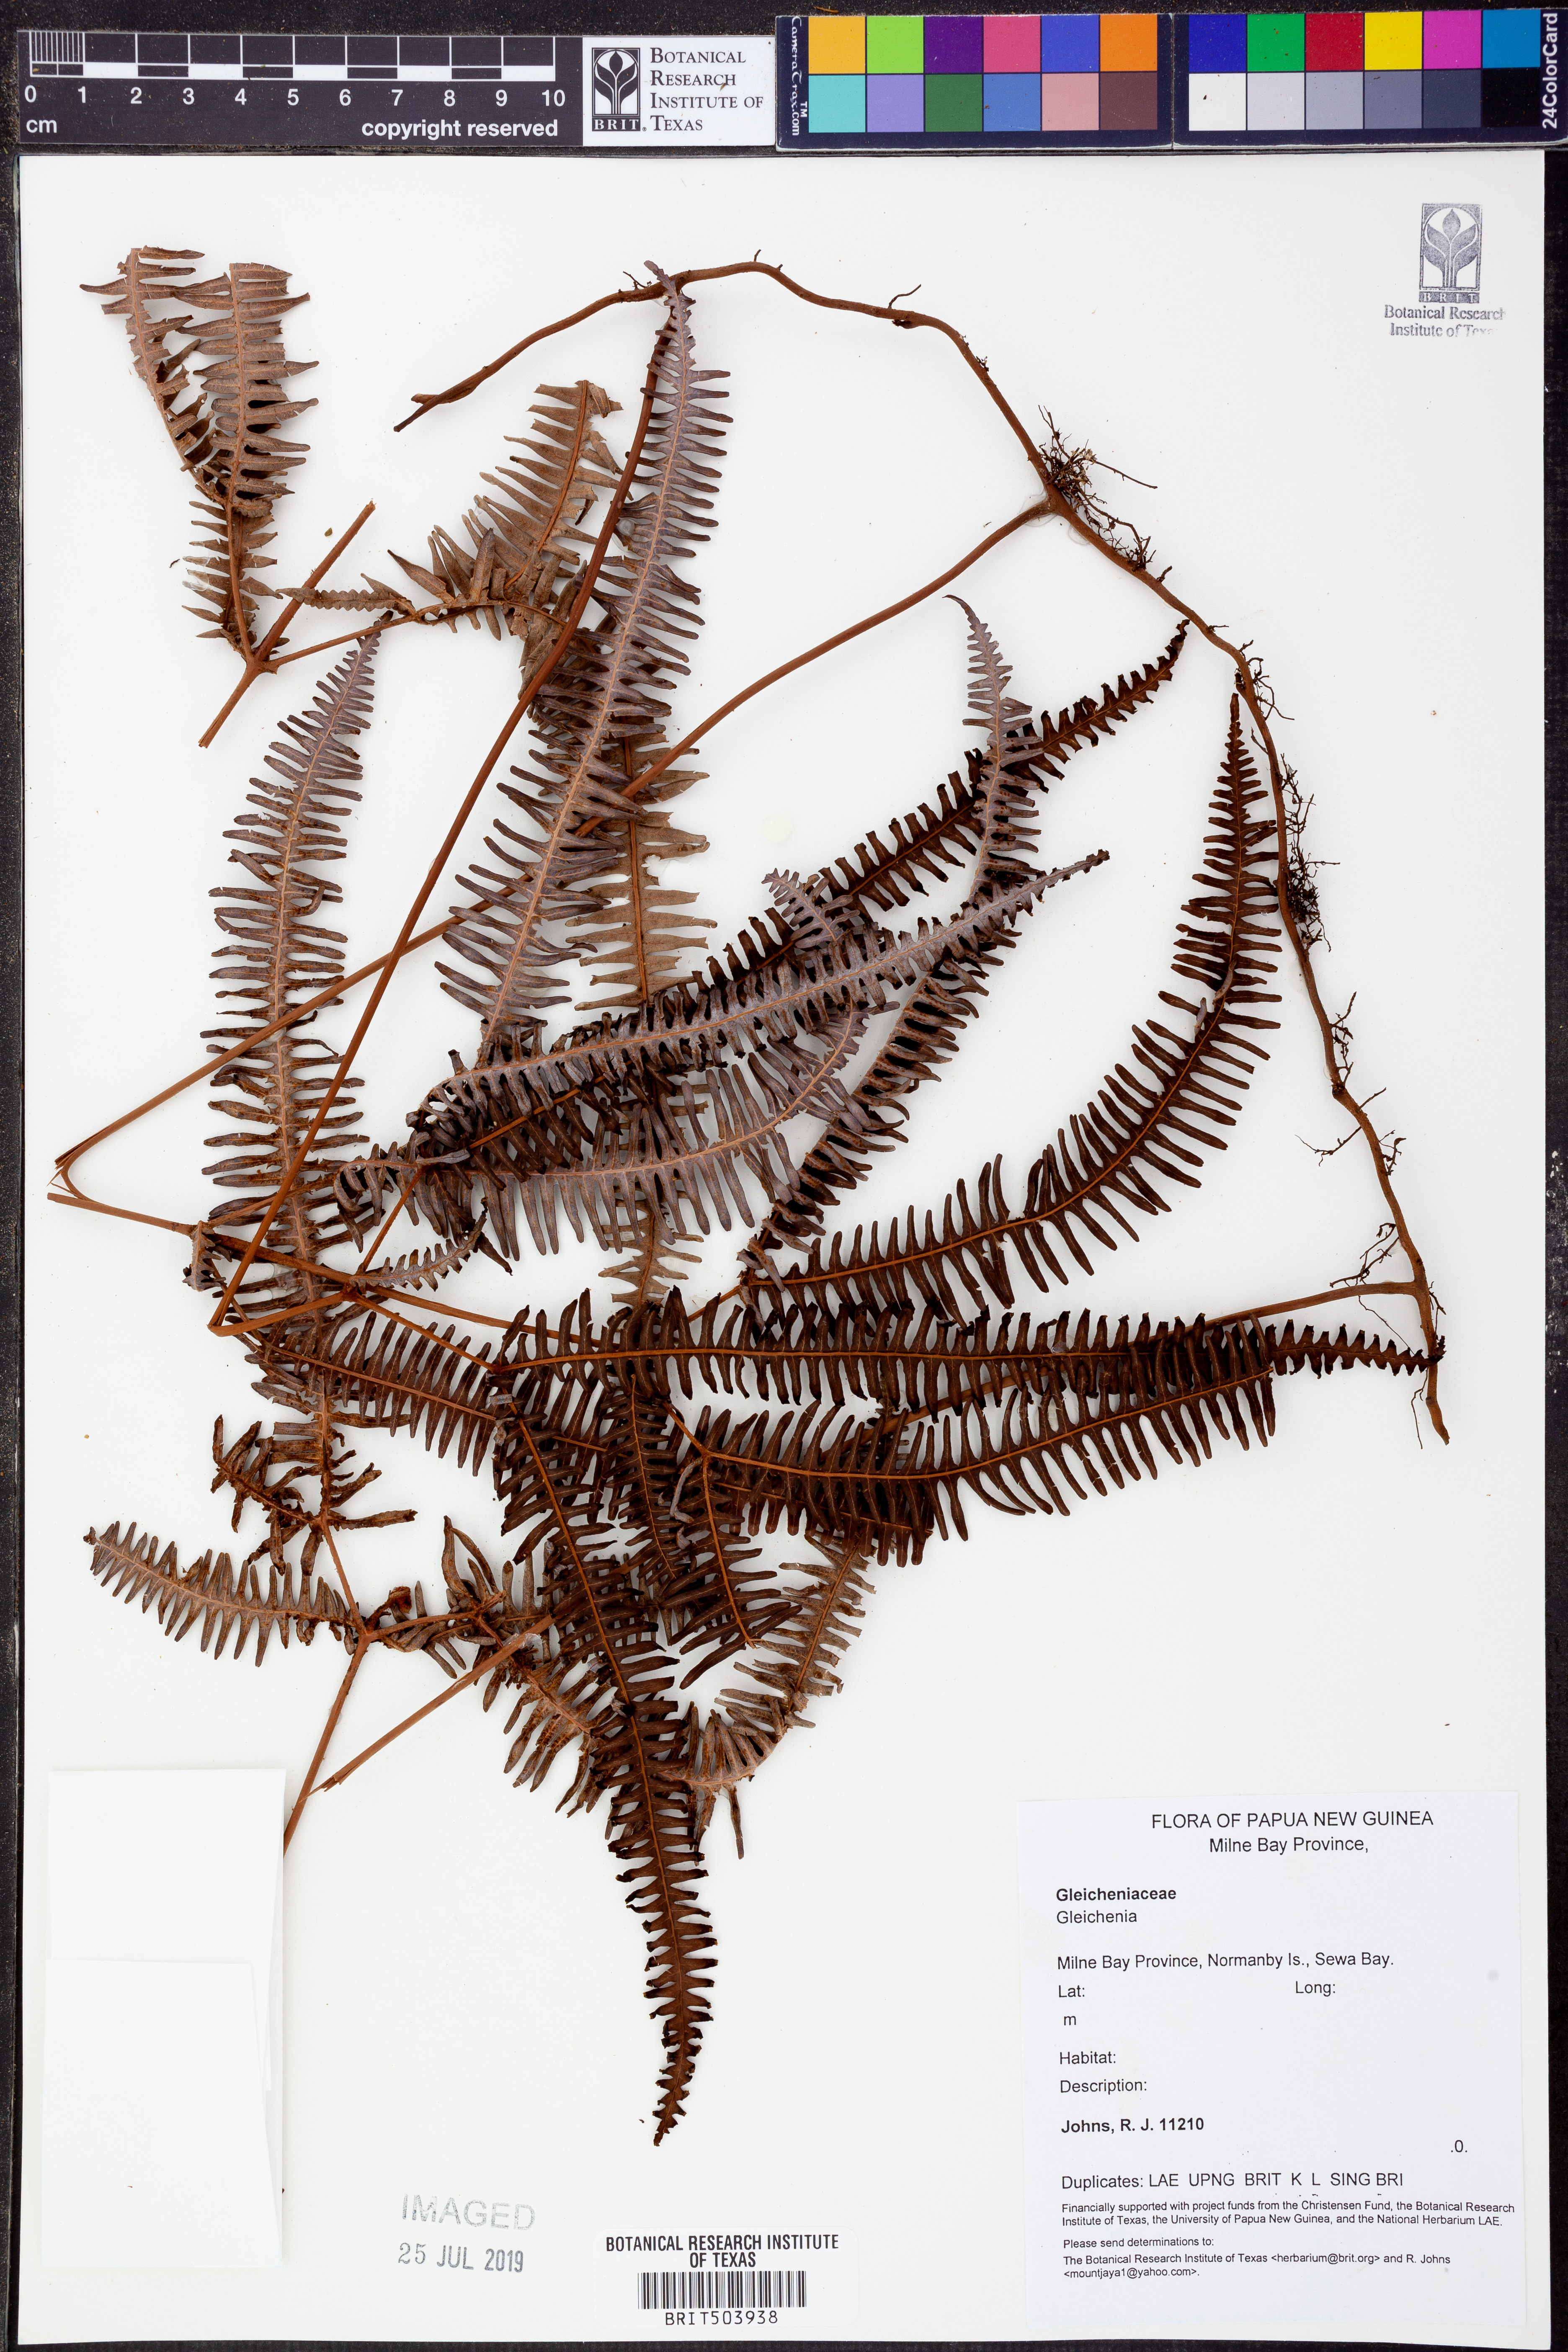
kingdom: Plantae
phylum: Tracheophyta
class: Polypodiopsida
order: Gleicheniales
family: Gleicheniaceae
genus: Gleichenia
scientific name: Gleichenia
